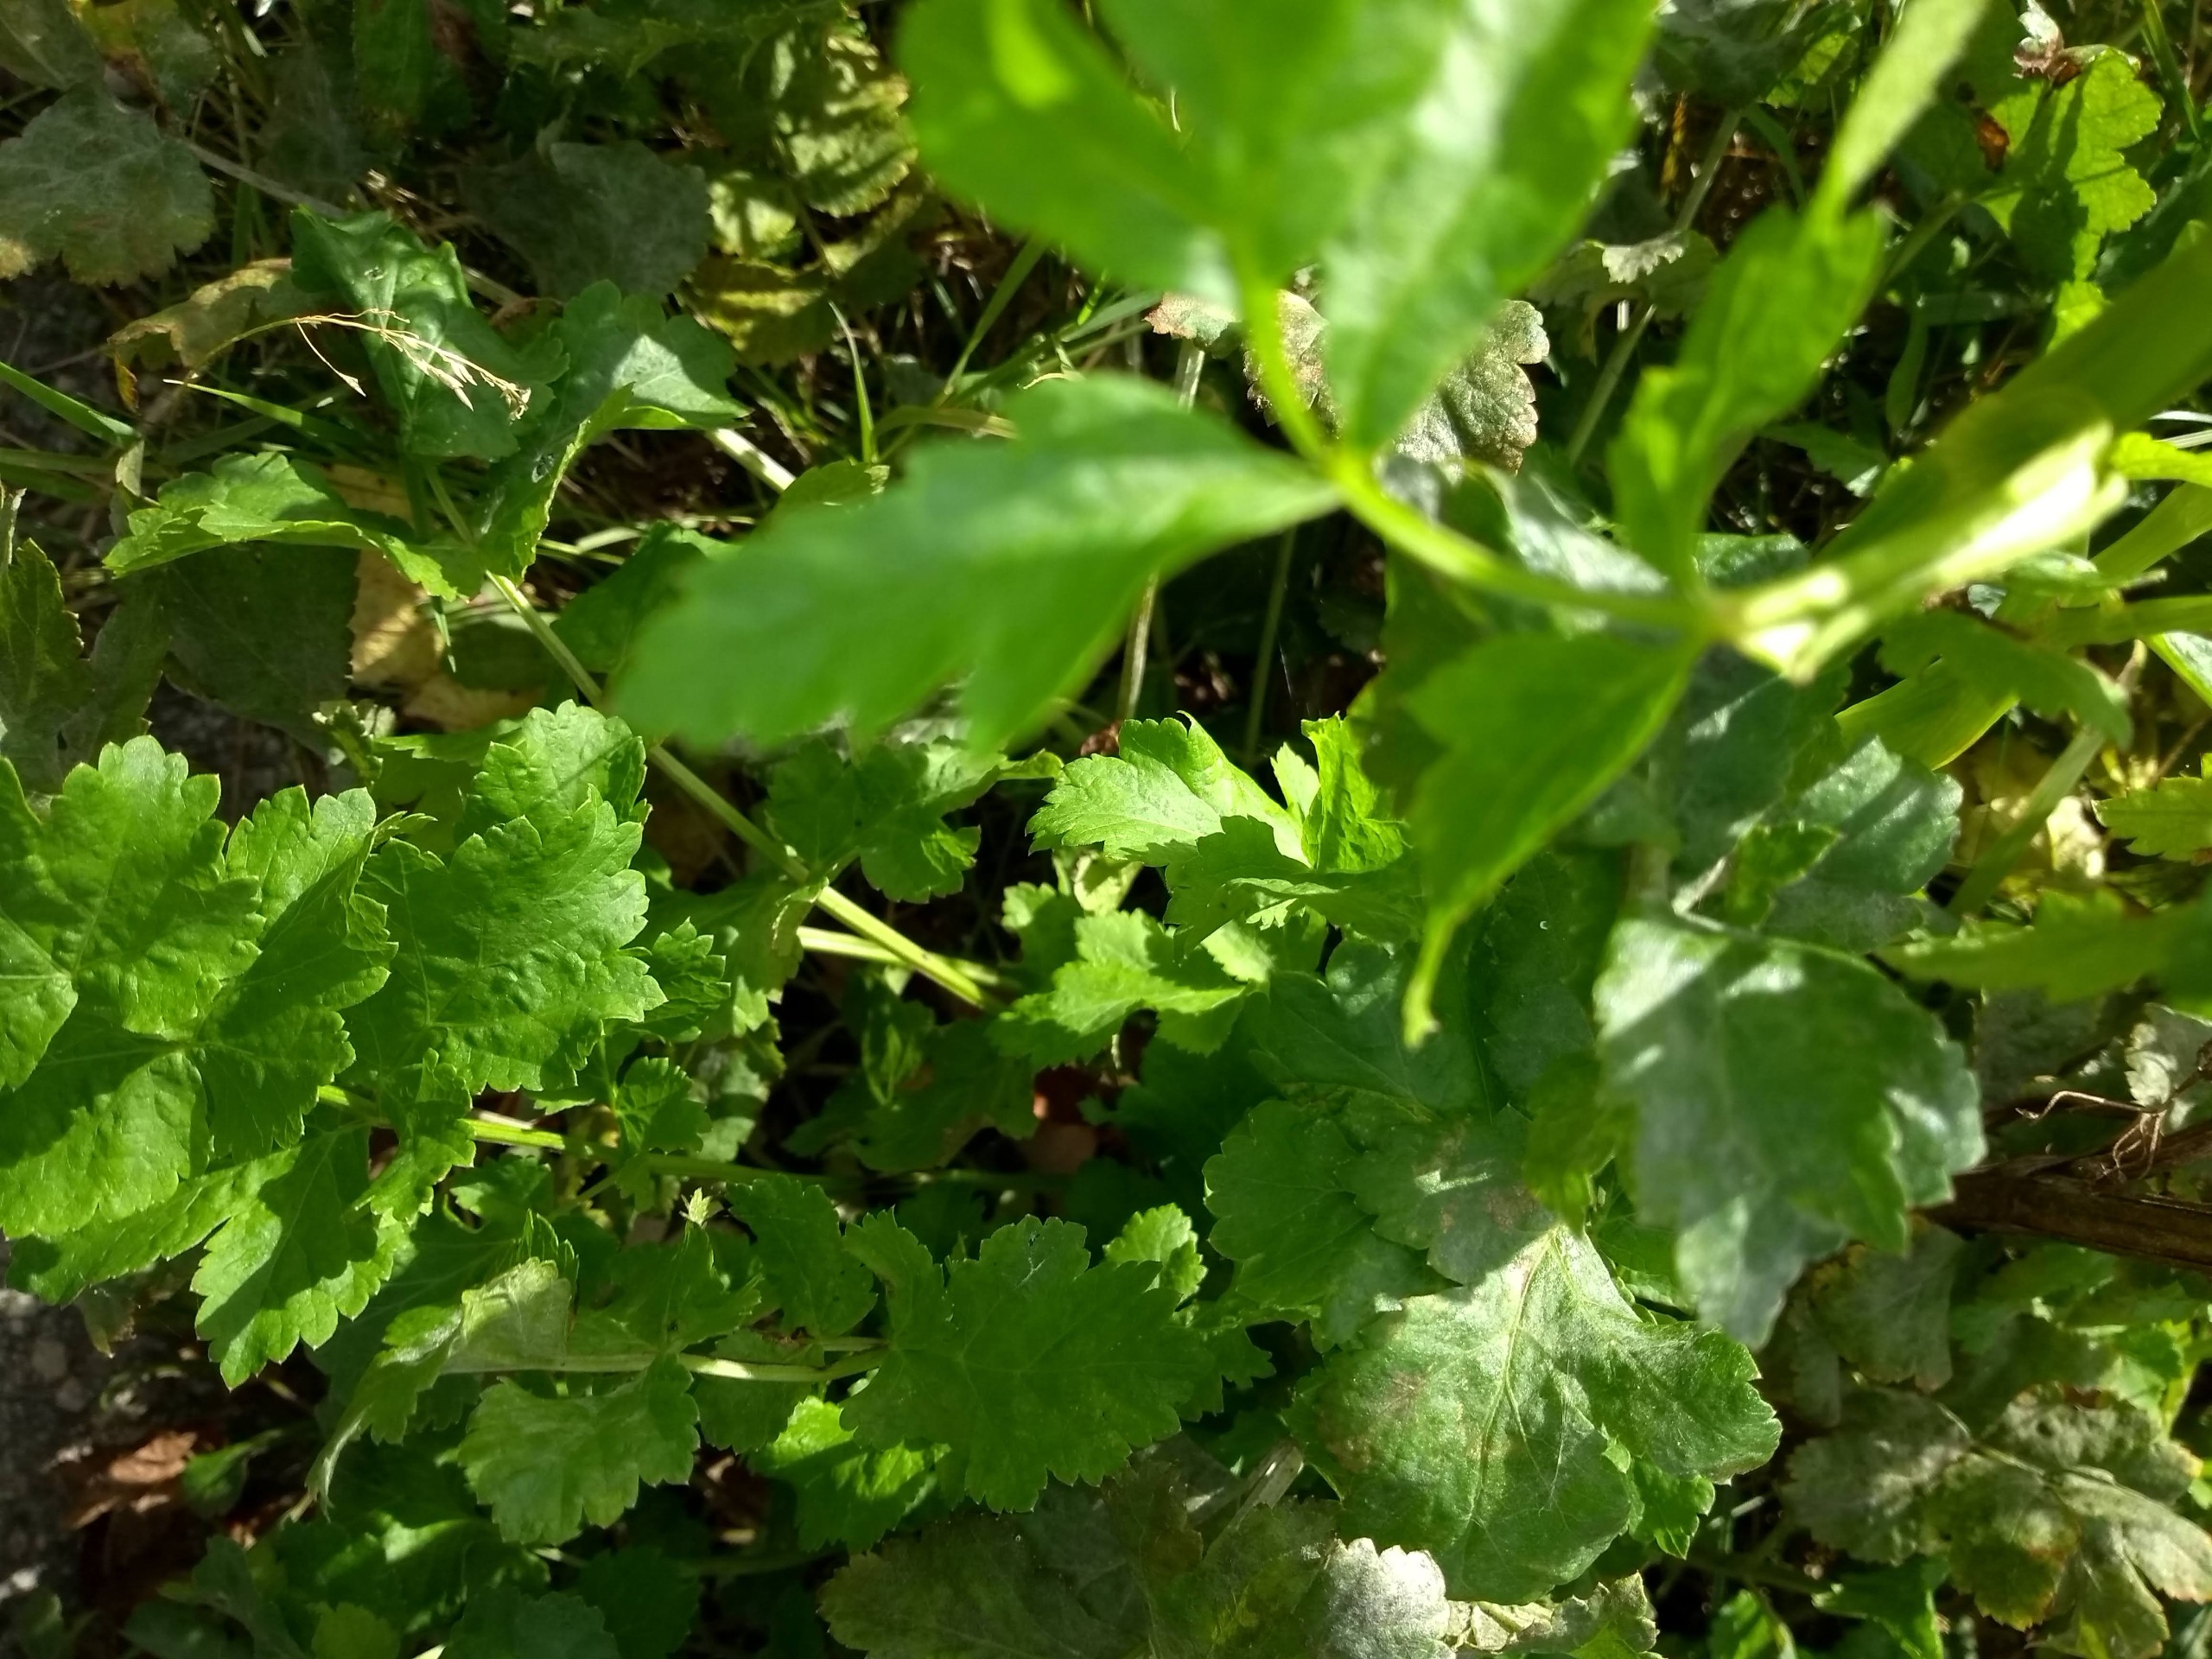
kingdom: Plantae
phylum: Tracheophyta
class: Magnoliopsida
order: Apiales
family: Apiaceae
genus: Pastinaca
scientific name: Pastinaca sativa
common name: Pastinak
